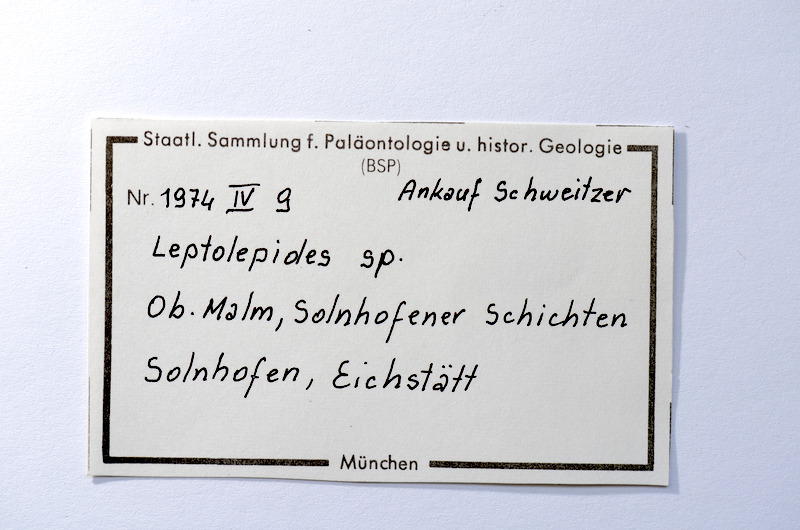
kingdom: Animalia
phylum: Chordata
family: Ascalaboidae
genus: Tharsis
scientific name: Tharsis dubius
